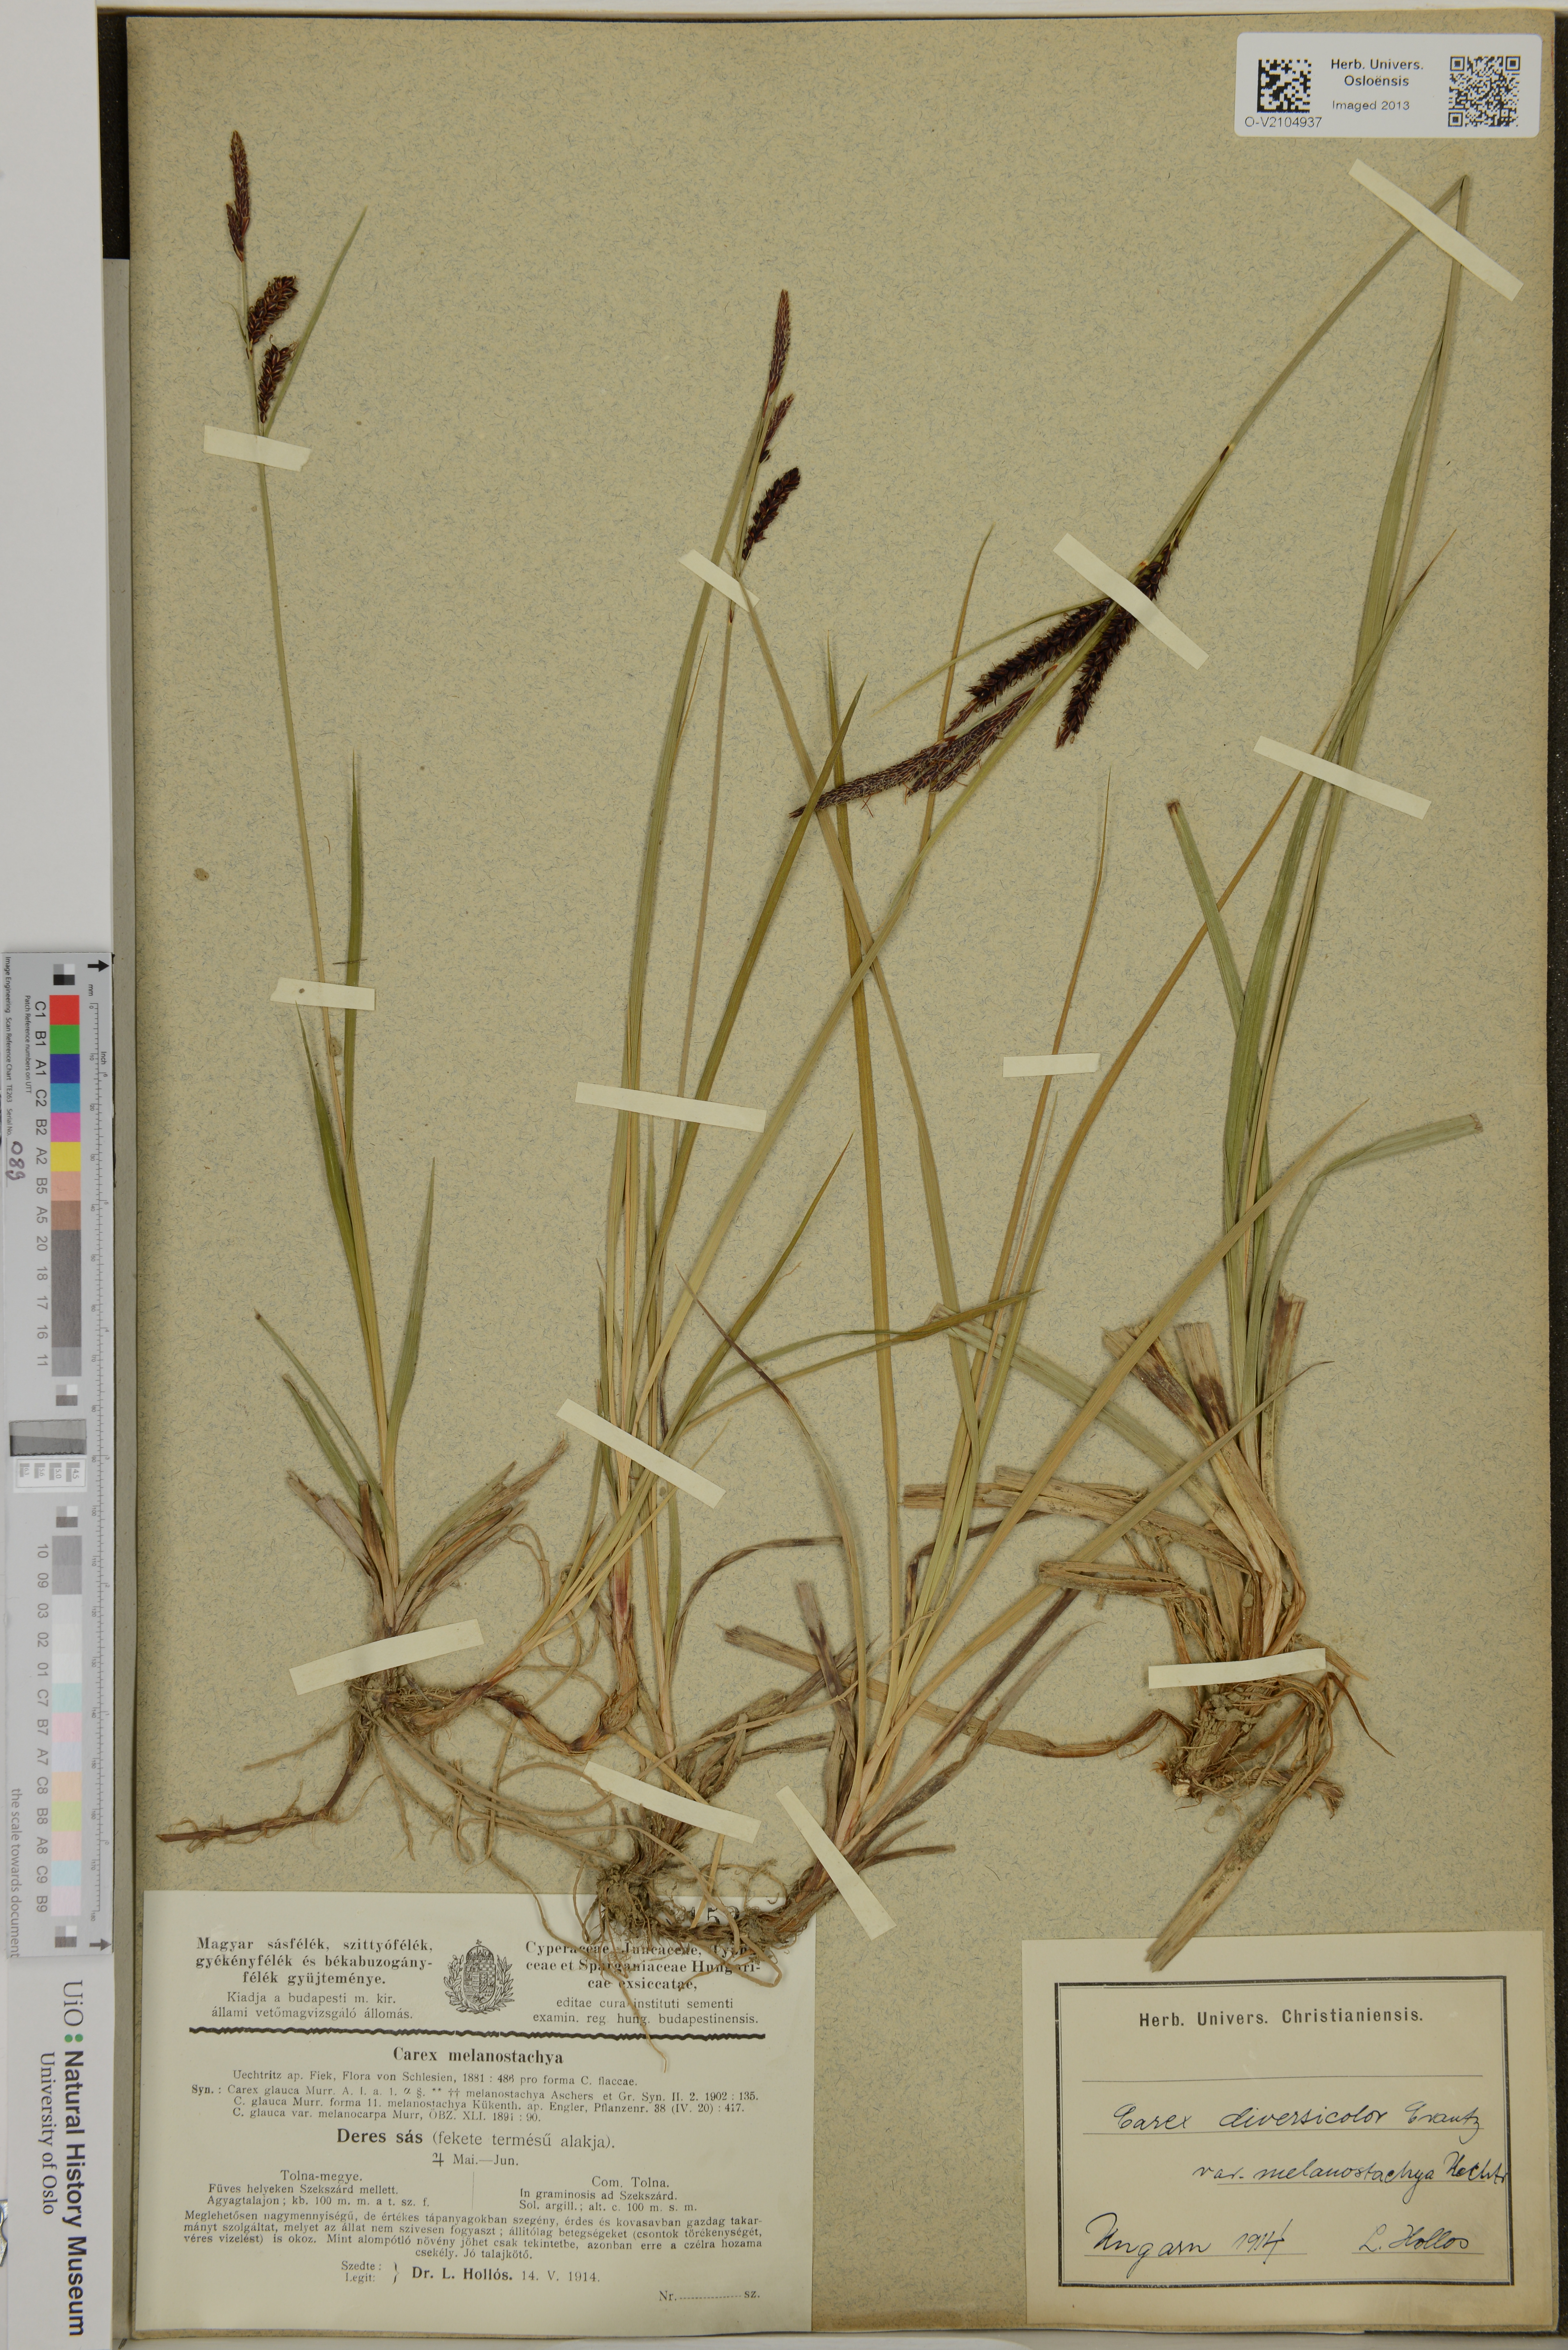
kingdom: Plantae
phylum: Tracheophyta
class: Liliopsida
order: Poales
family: Cyperaceae
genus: Carex
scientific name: Carex flacca
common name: Glaucous sedge
